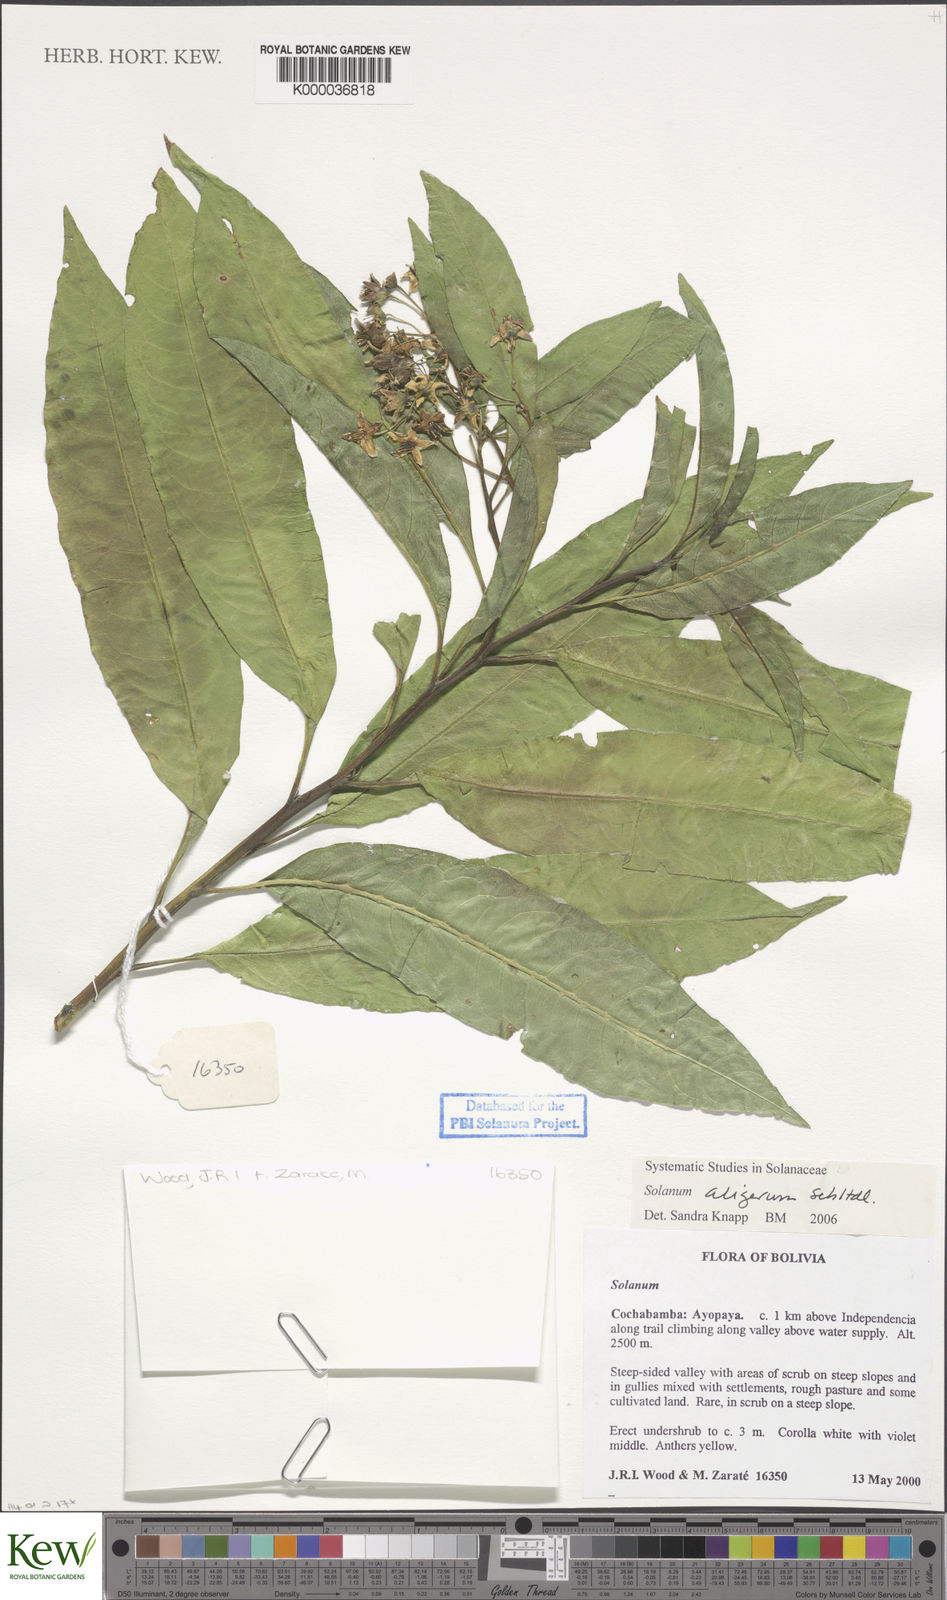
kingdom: Plantae
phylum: Tracheophyta
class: Magnoliopsida
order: Solanales
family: Solanaceae
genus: Solanum
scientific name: Solanum aligerum
